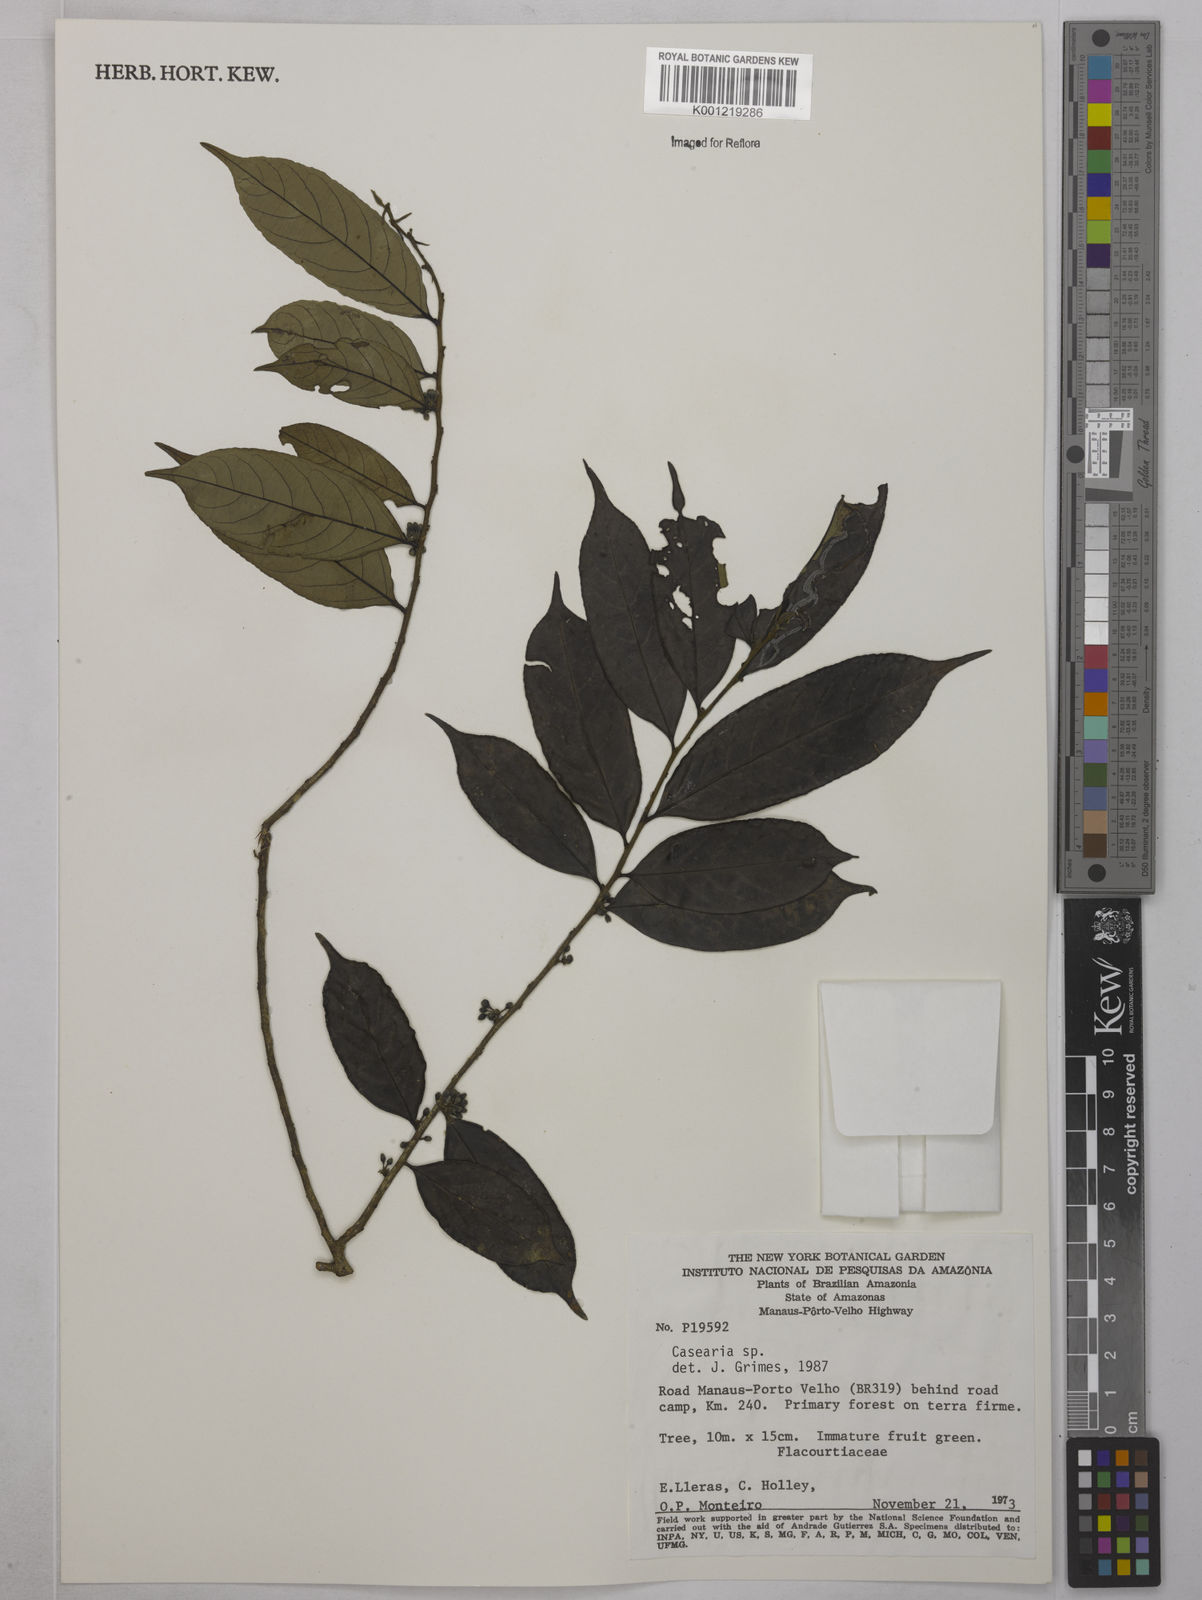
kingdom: Plantae
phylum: Tracheophyta
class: Magnoliopsida
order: Malpighiales
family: Salicaceae
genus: Casearia
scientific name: Casearia
